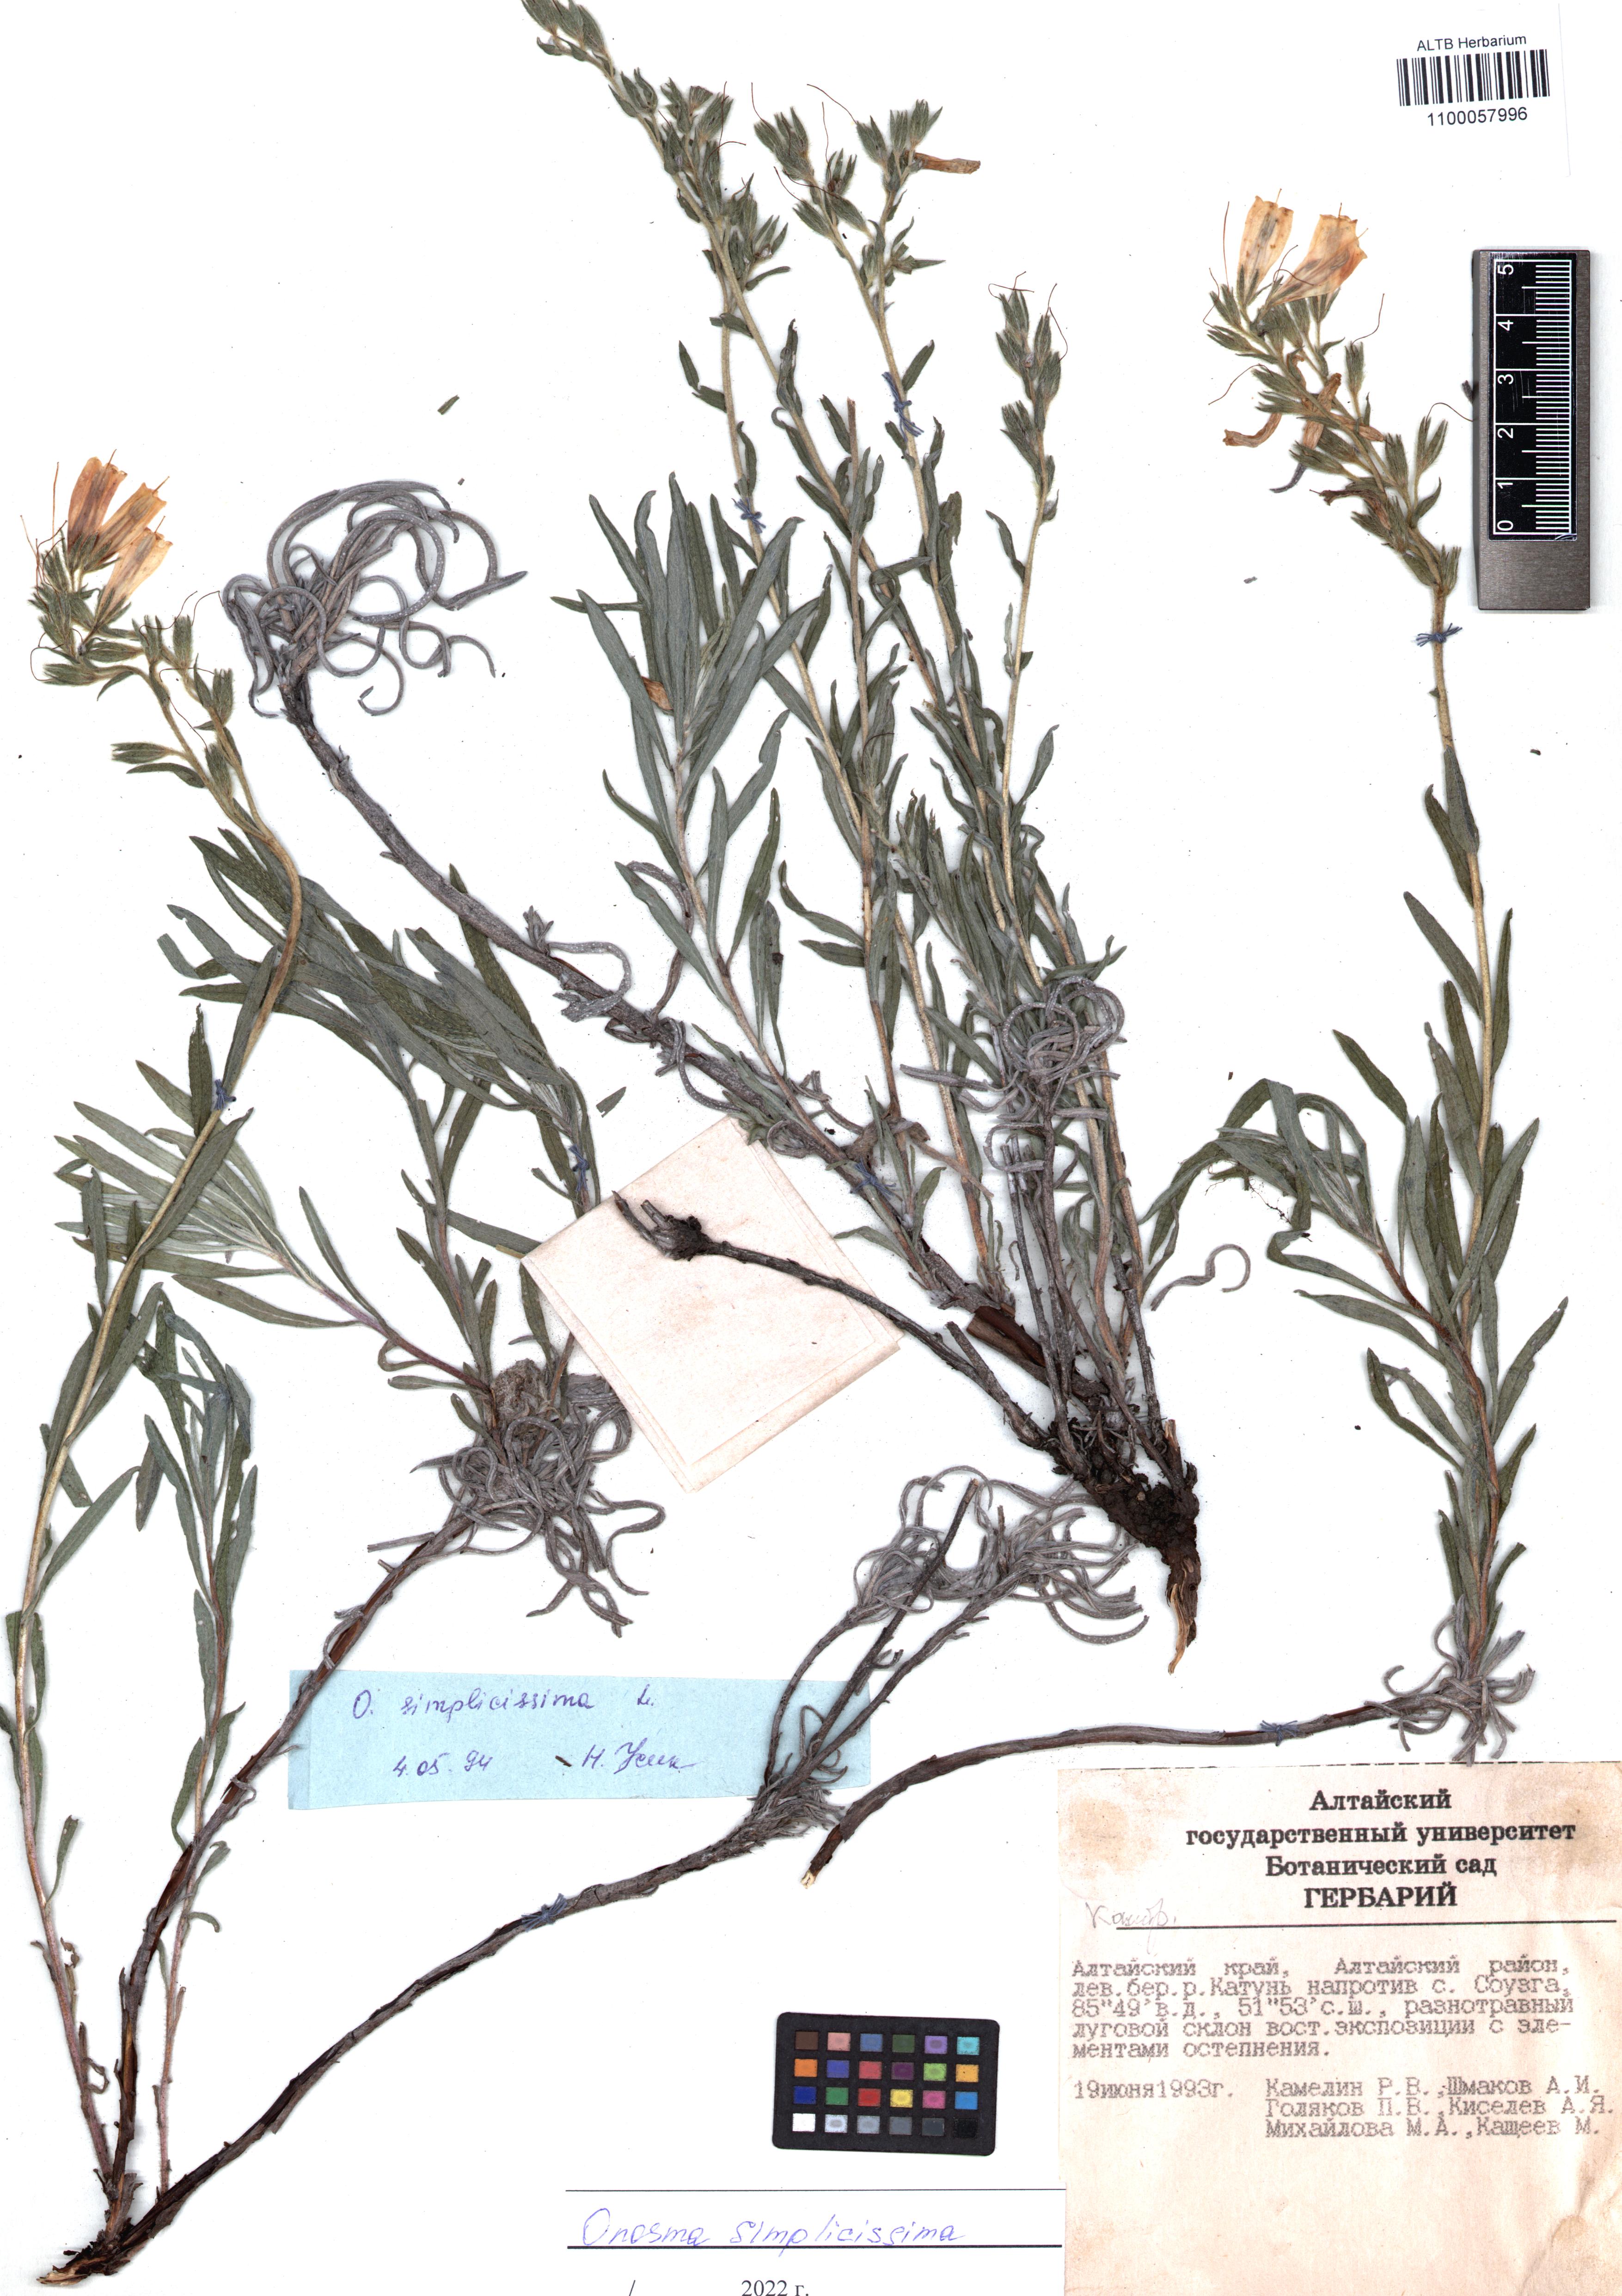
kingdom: Plantae
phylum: Tracheophyta
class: Magnoliopsida
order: Boraginales
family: Boraginaceae
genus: Onosma
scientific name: Onosma simplicissima
